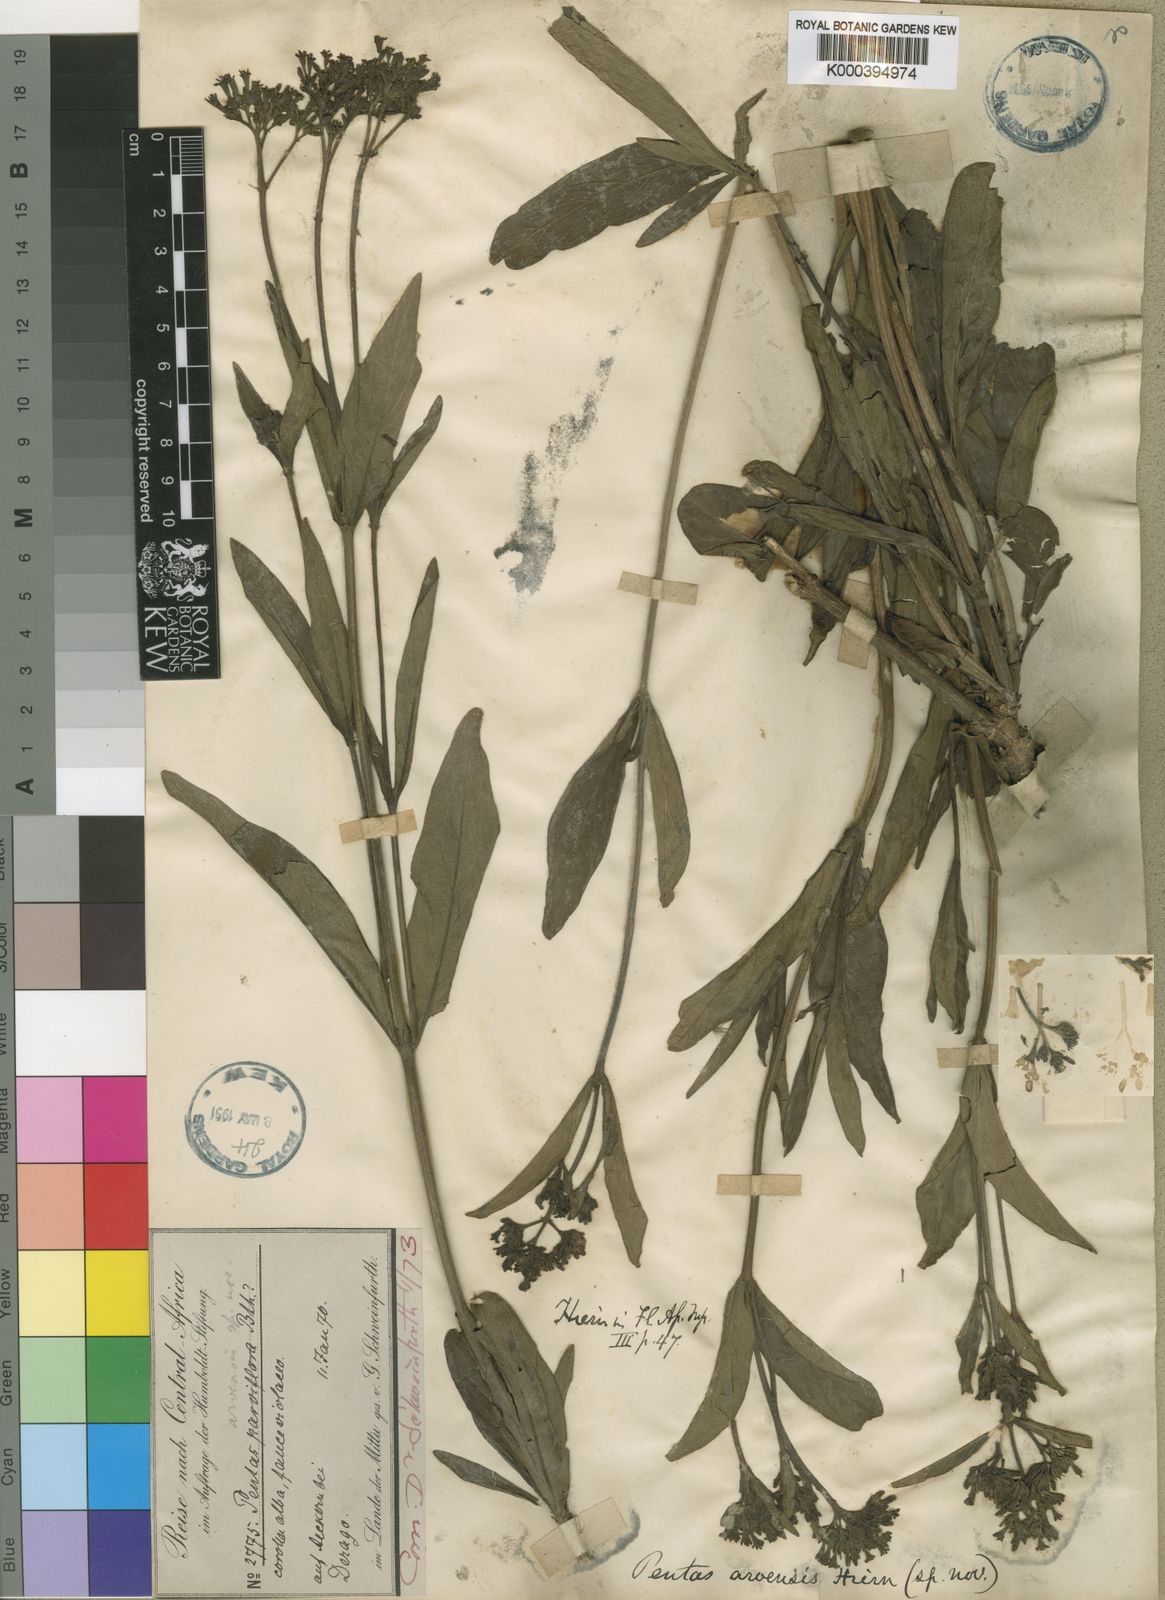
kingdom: Plantae
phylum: Tracheophyta
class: Magnoliopsida
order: Gentianales
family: Rubiaceae
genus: Pentas
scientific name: Pentas arvensis
